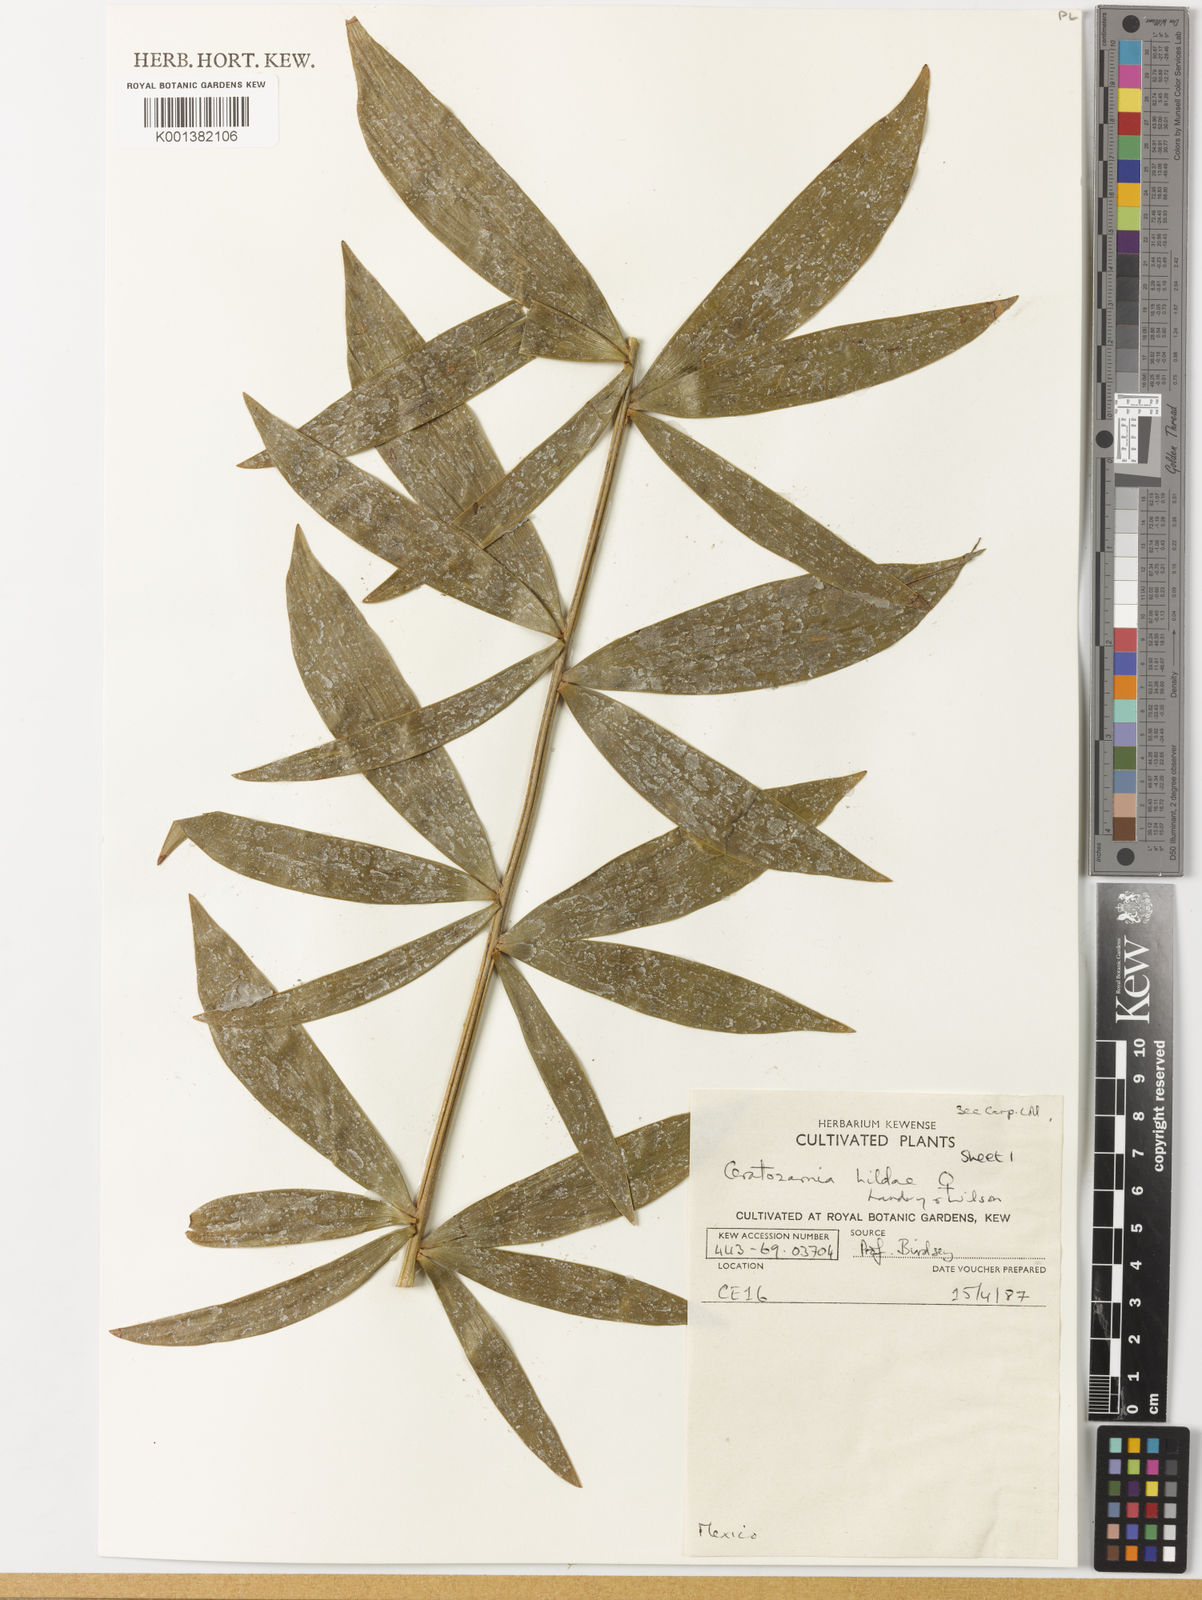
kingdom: Plantae
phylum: Tracheophyta
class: Cycadopsida
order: Cycadales
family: Zamiaceae
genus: Ceratozamia
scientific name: Ceratozamia hildae
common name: Bamboo cycad
